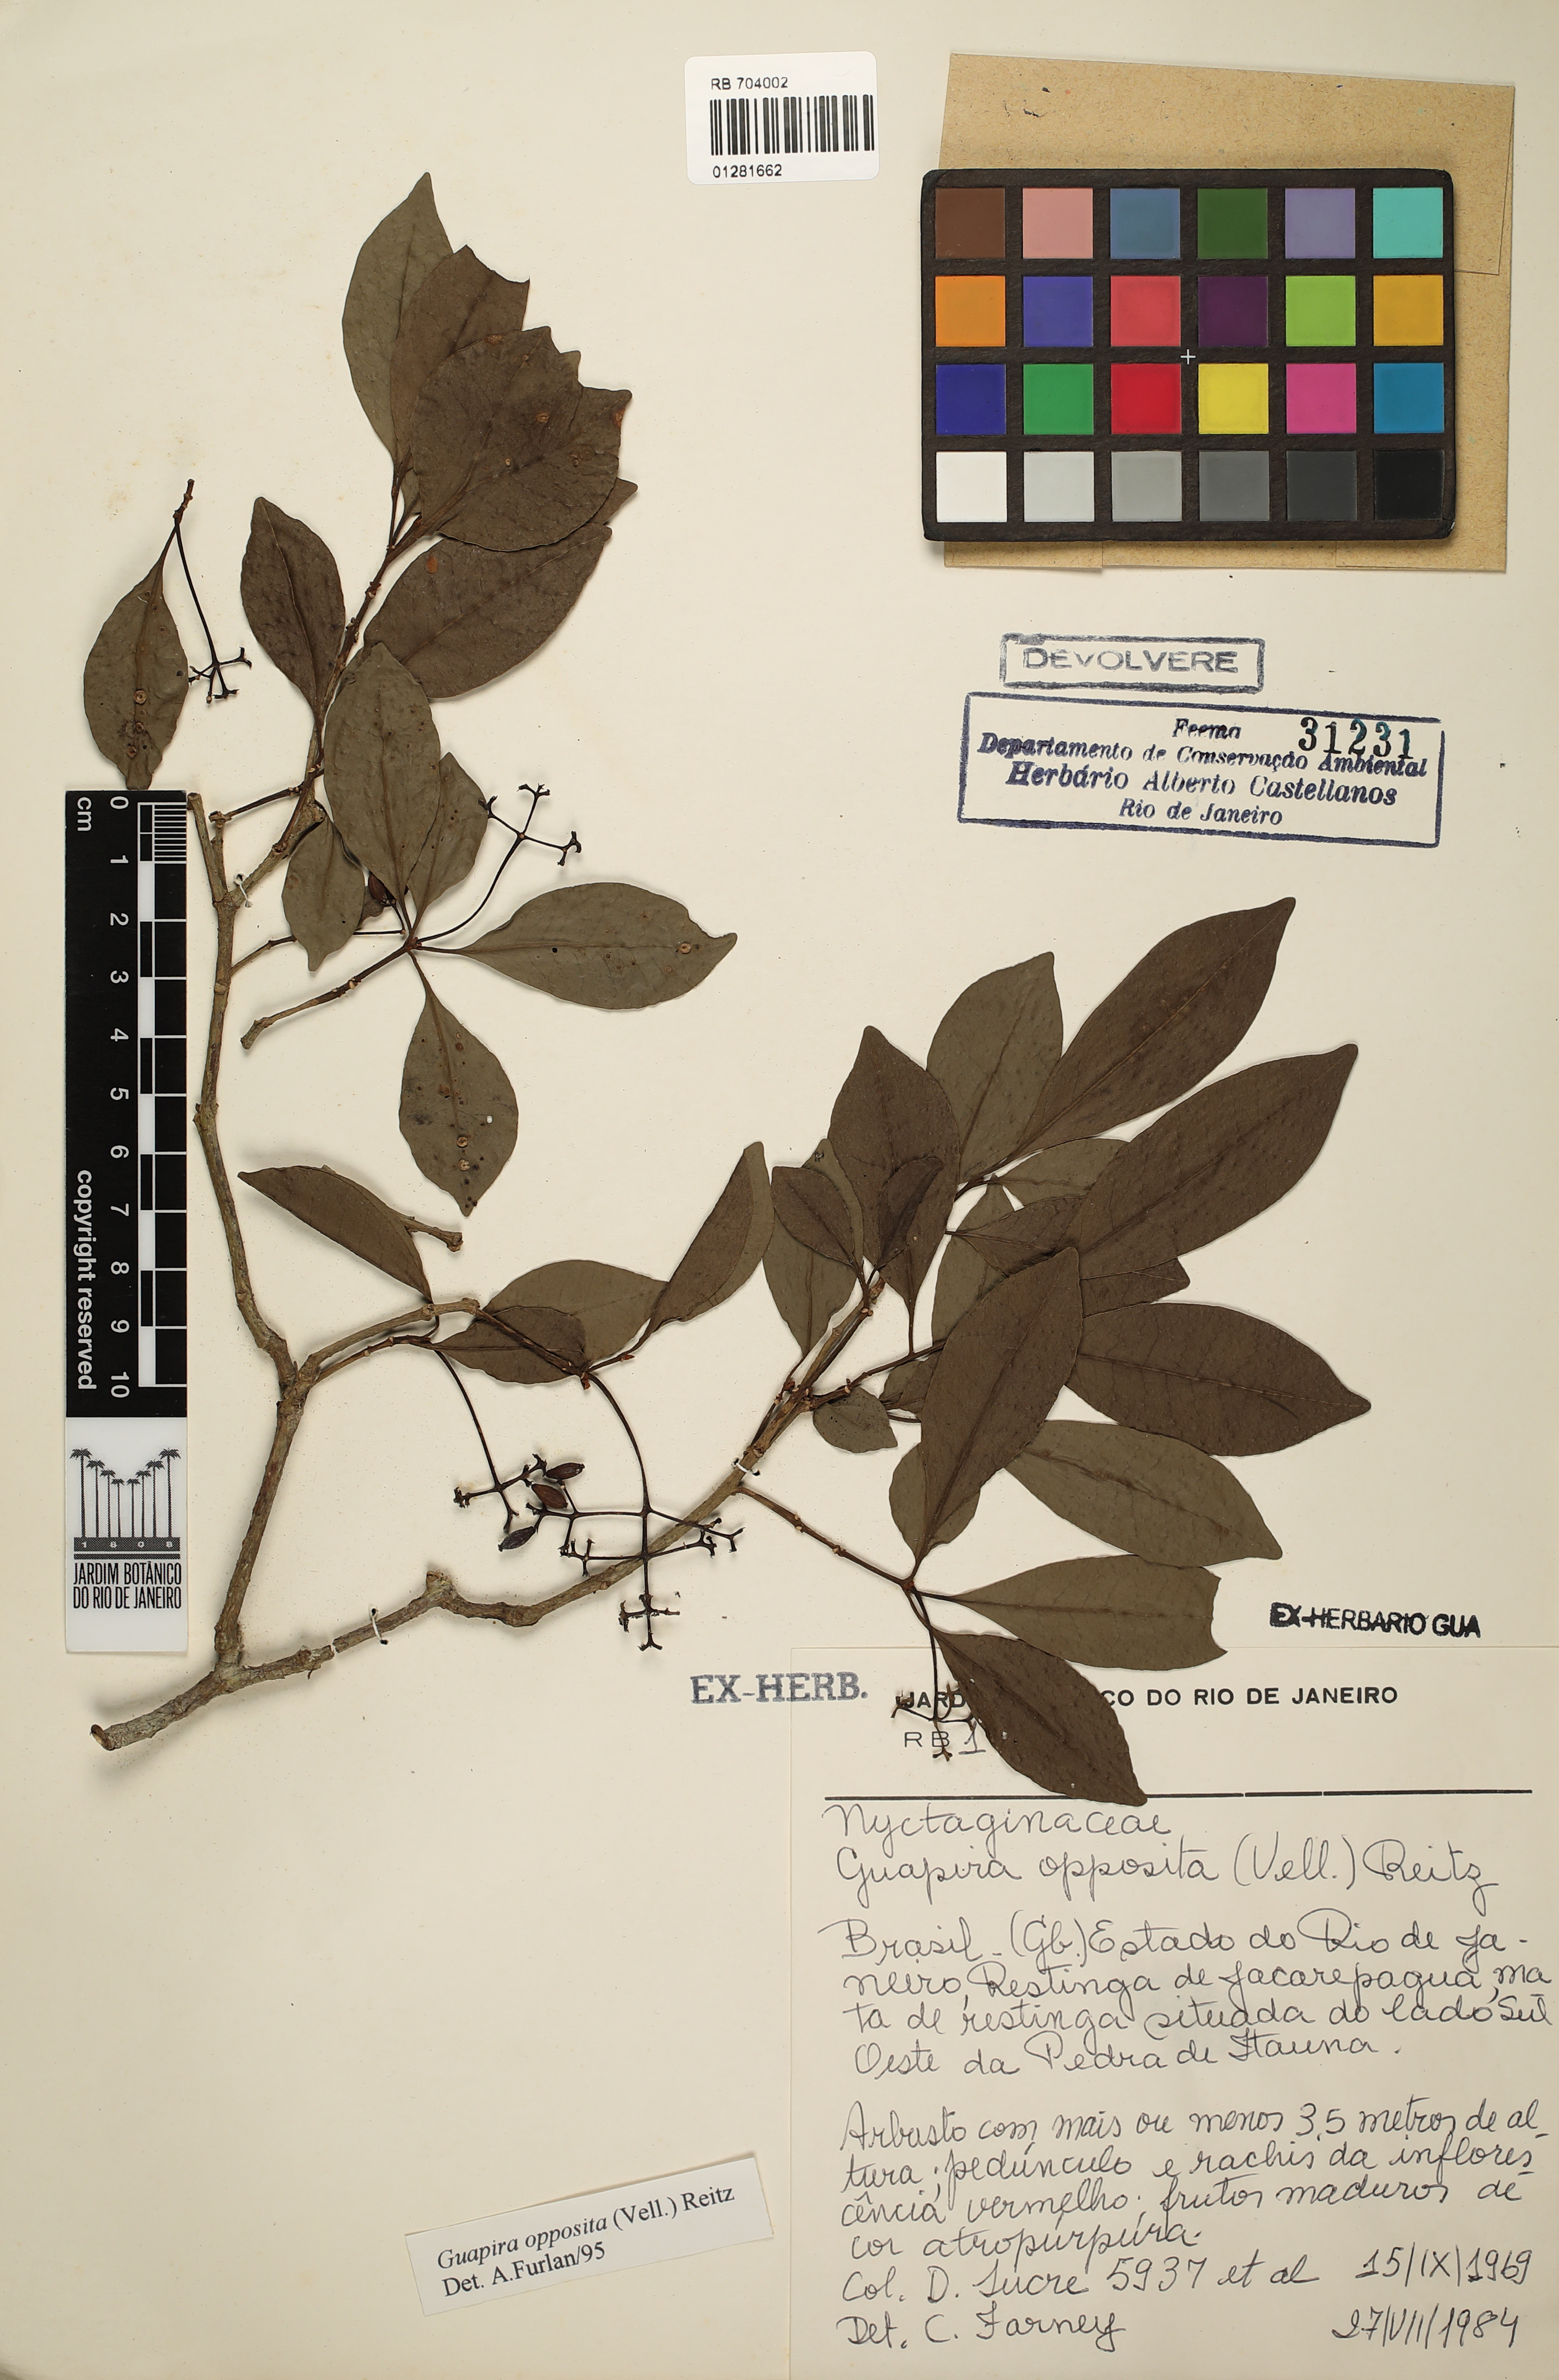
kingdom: Plantae
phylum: Tracheophyta
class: Magnoliopsida
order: Caryophyllales
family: Nyctaginaceae
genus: Guapira
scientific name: Guapira opposita
